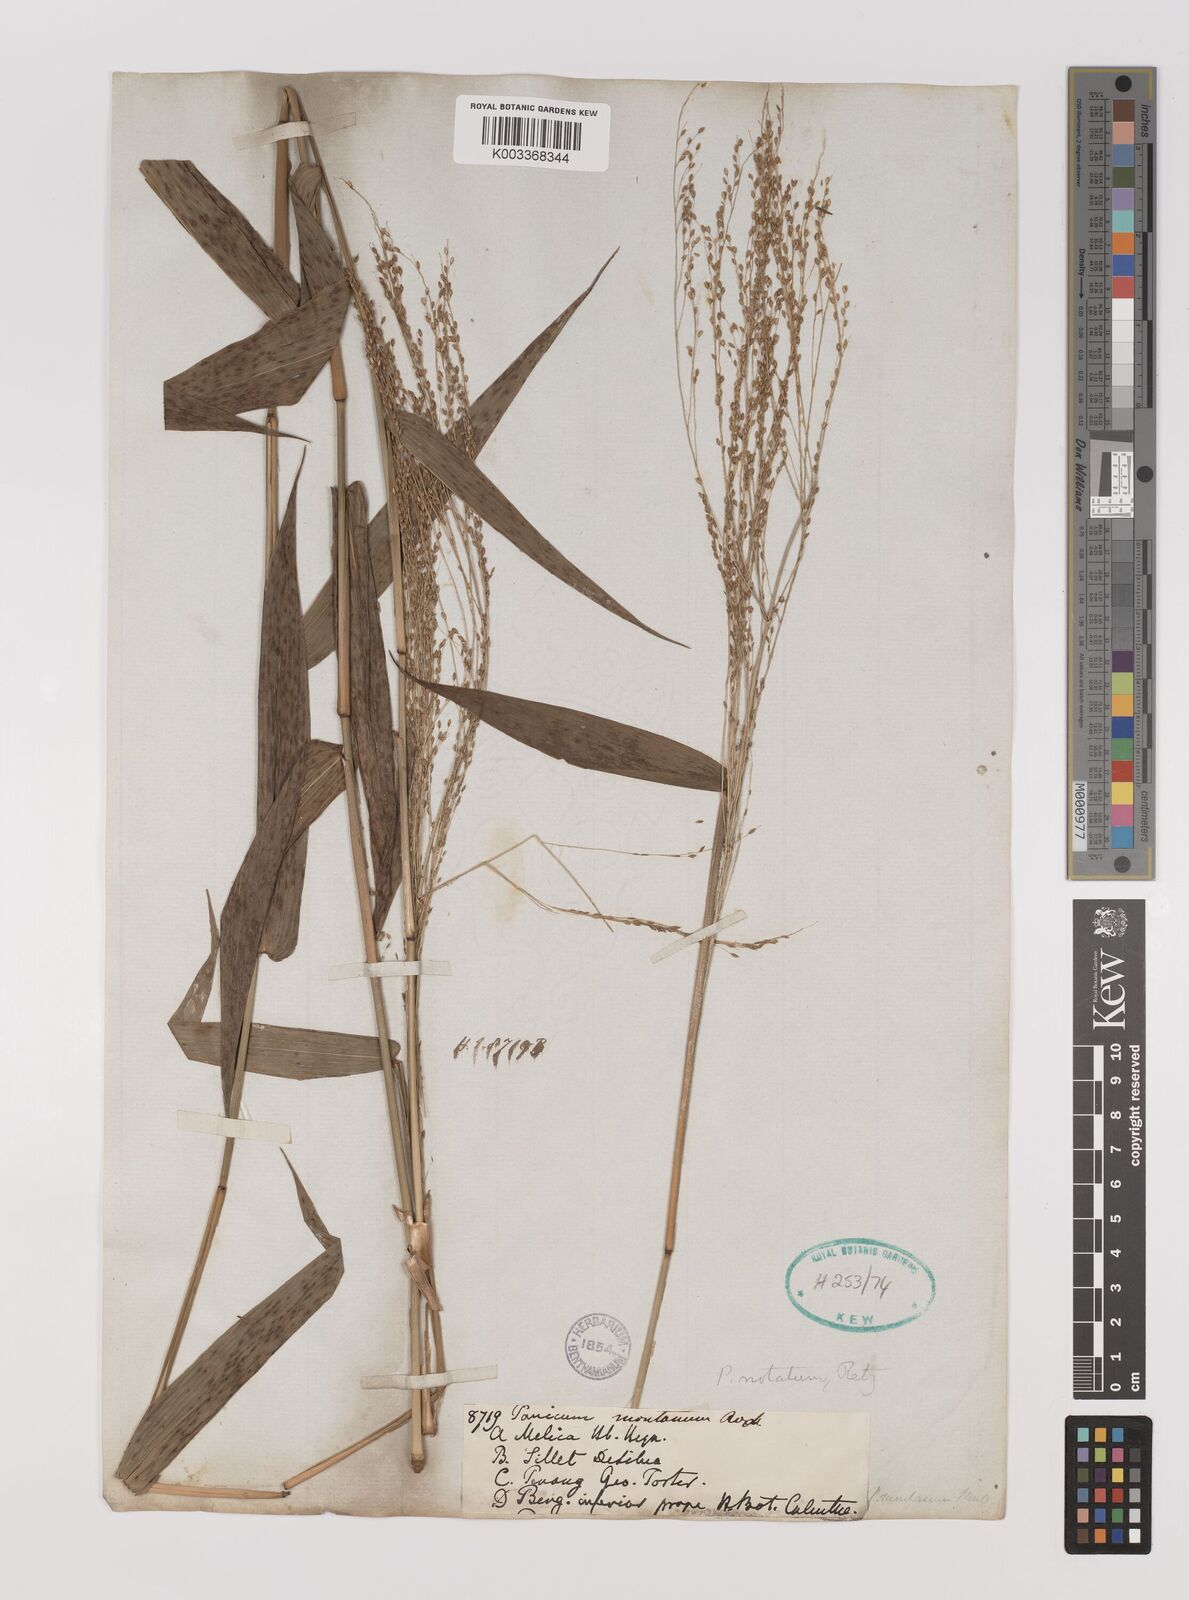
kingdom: Plantae
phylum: Tracheophyta
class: Liliopsida
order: Poales
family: Poaceae
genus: Panicum
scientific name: Panicum notatum
